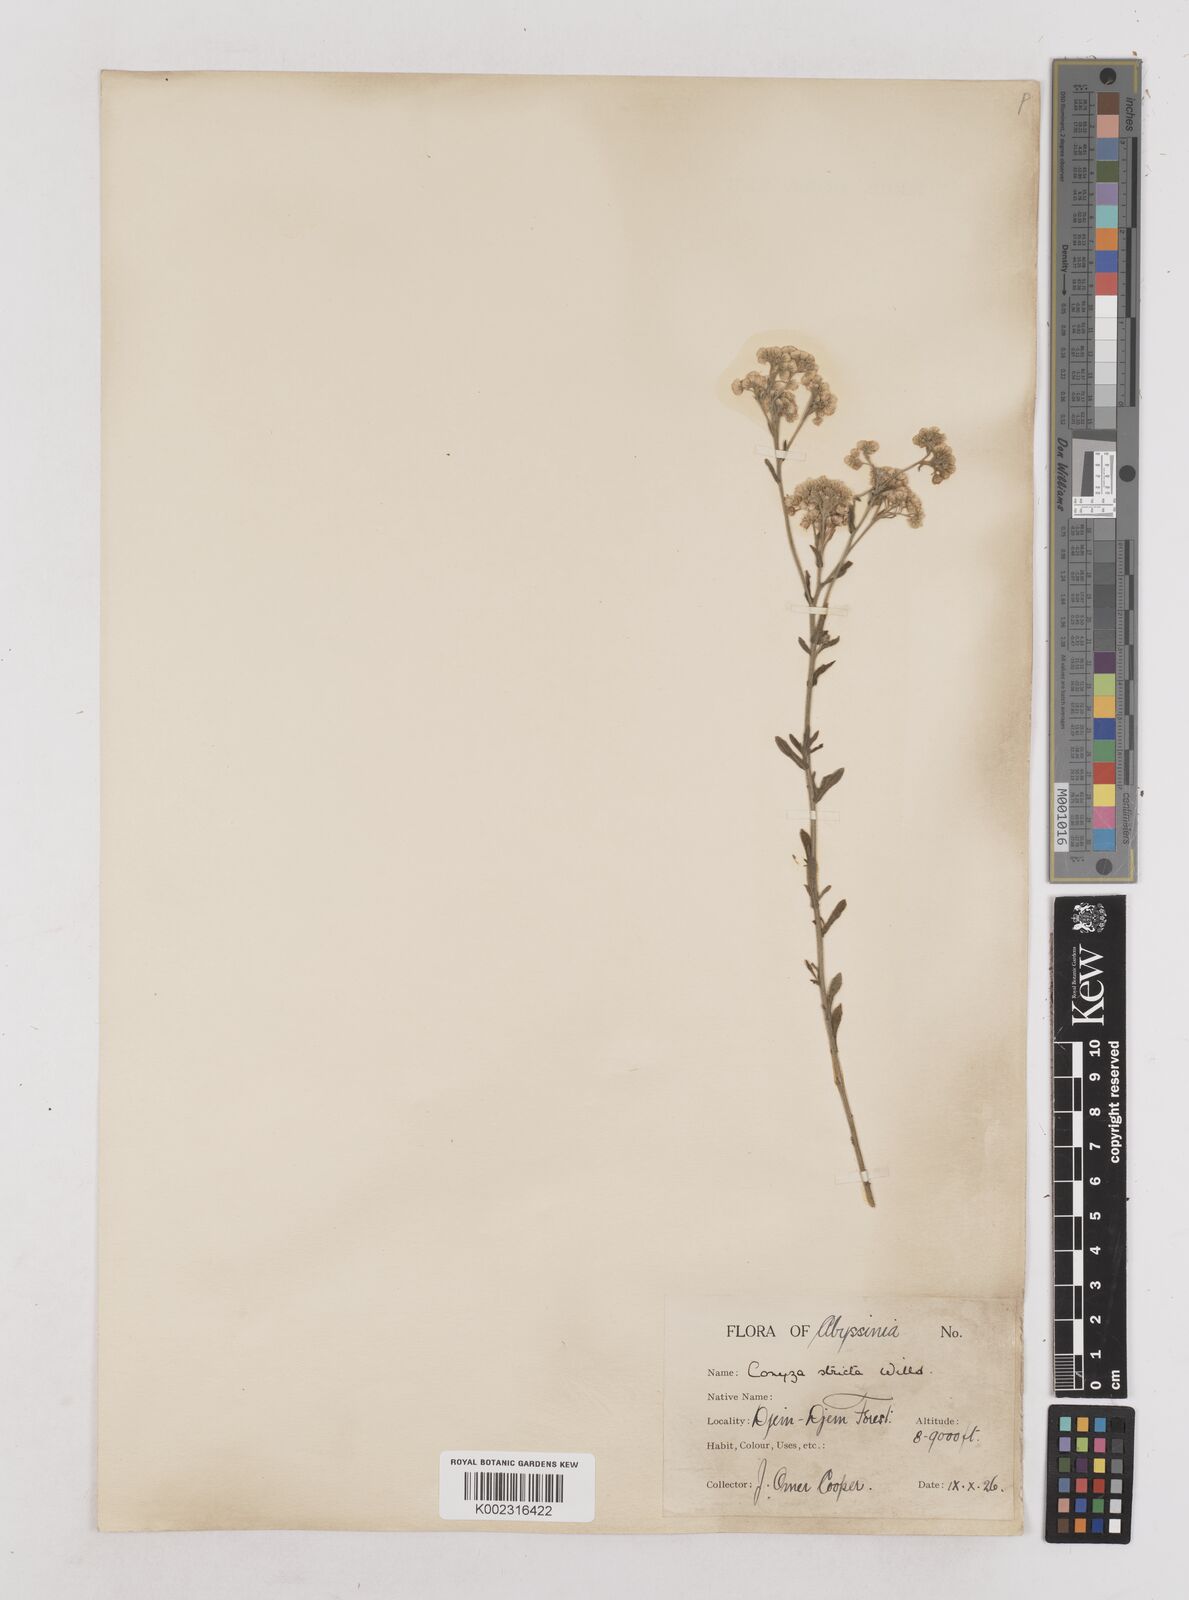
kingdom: Plantae
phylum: Tracheophyta
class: Magnoliopsida
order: Asterales
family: Asteraceae
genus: Nidorella
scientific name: Nidorella triloba
